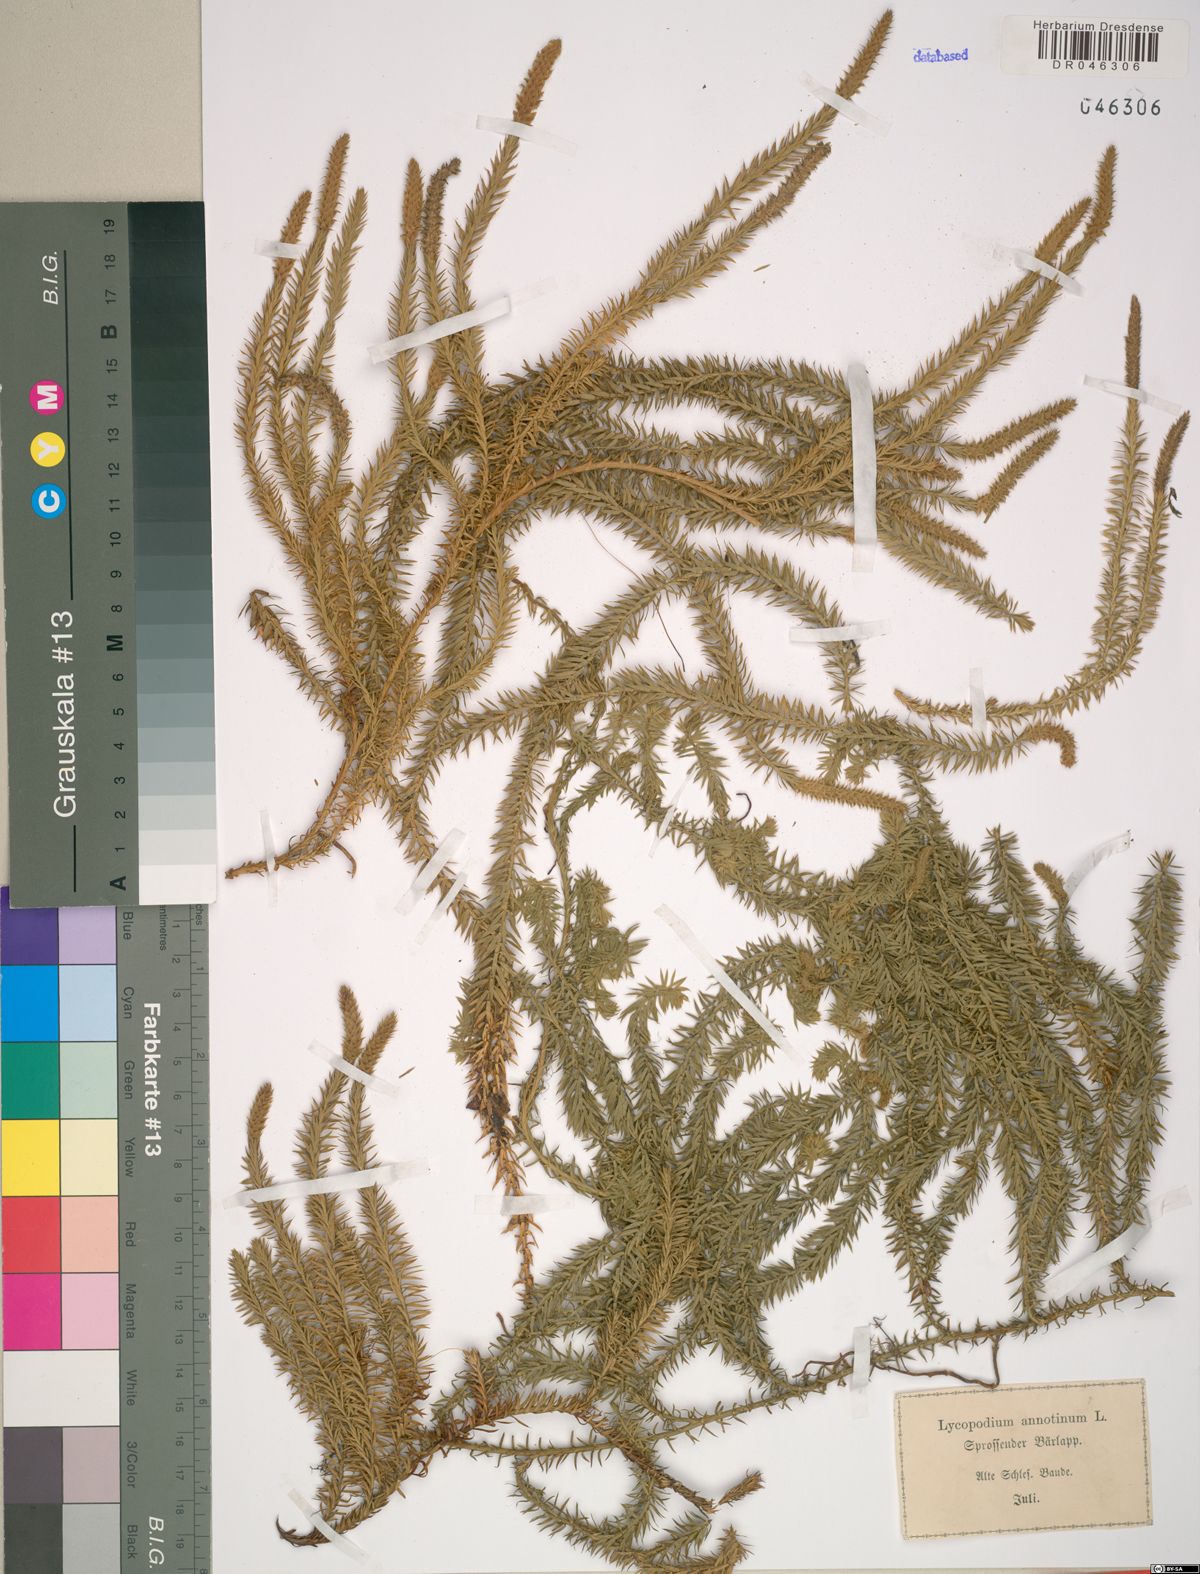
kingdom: Plantae
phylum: Tracheophyta
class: Lycopodiopsida
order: Lycopodiales
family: Lycopodiaceae
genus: Spinulum
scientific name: Spinulum annotinum
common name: Interrupted club-moss
